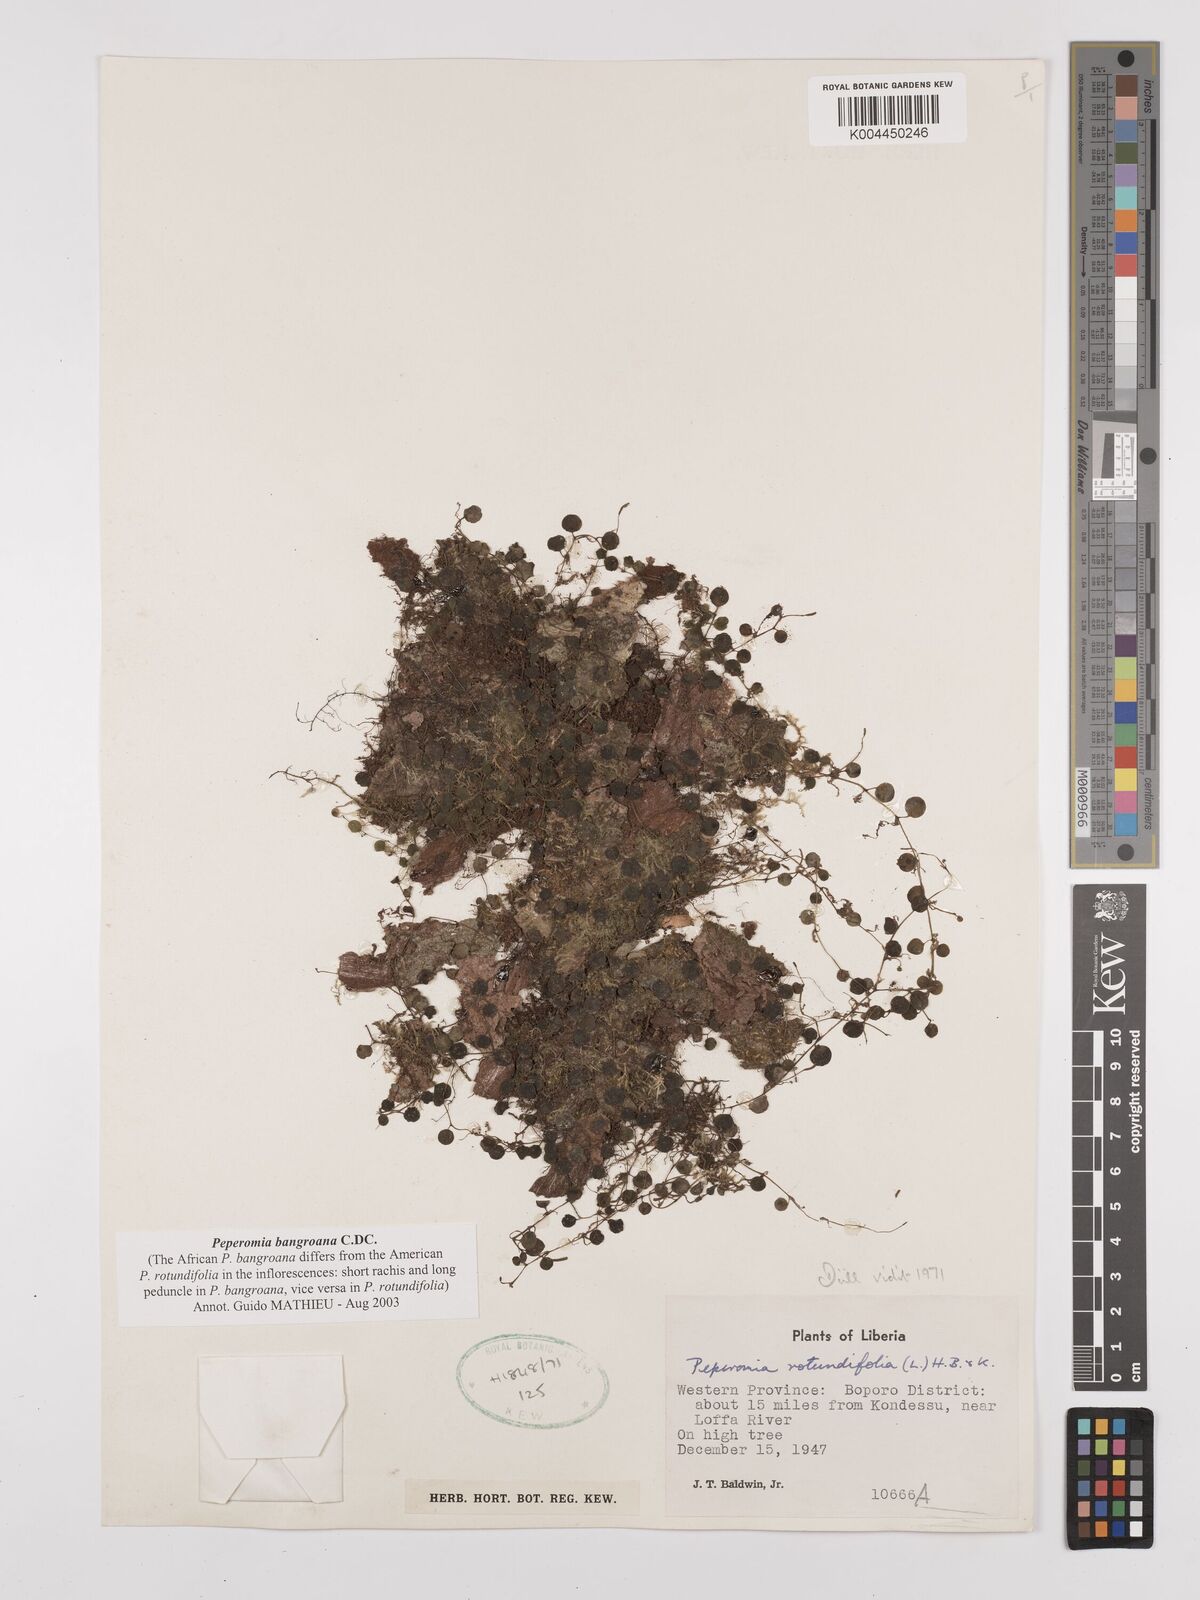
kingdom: Plantae
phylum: Tracheophyta
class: Magnoliopsida
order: Piperales
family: Piperaceae
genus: Peperomia
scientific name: Peperomia bangroana
